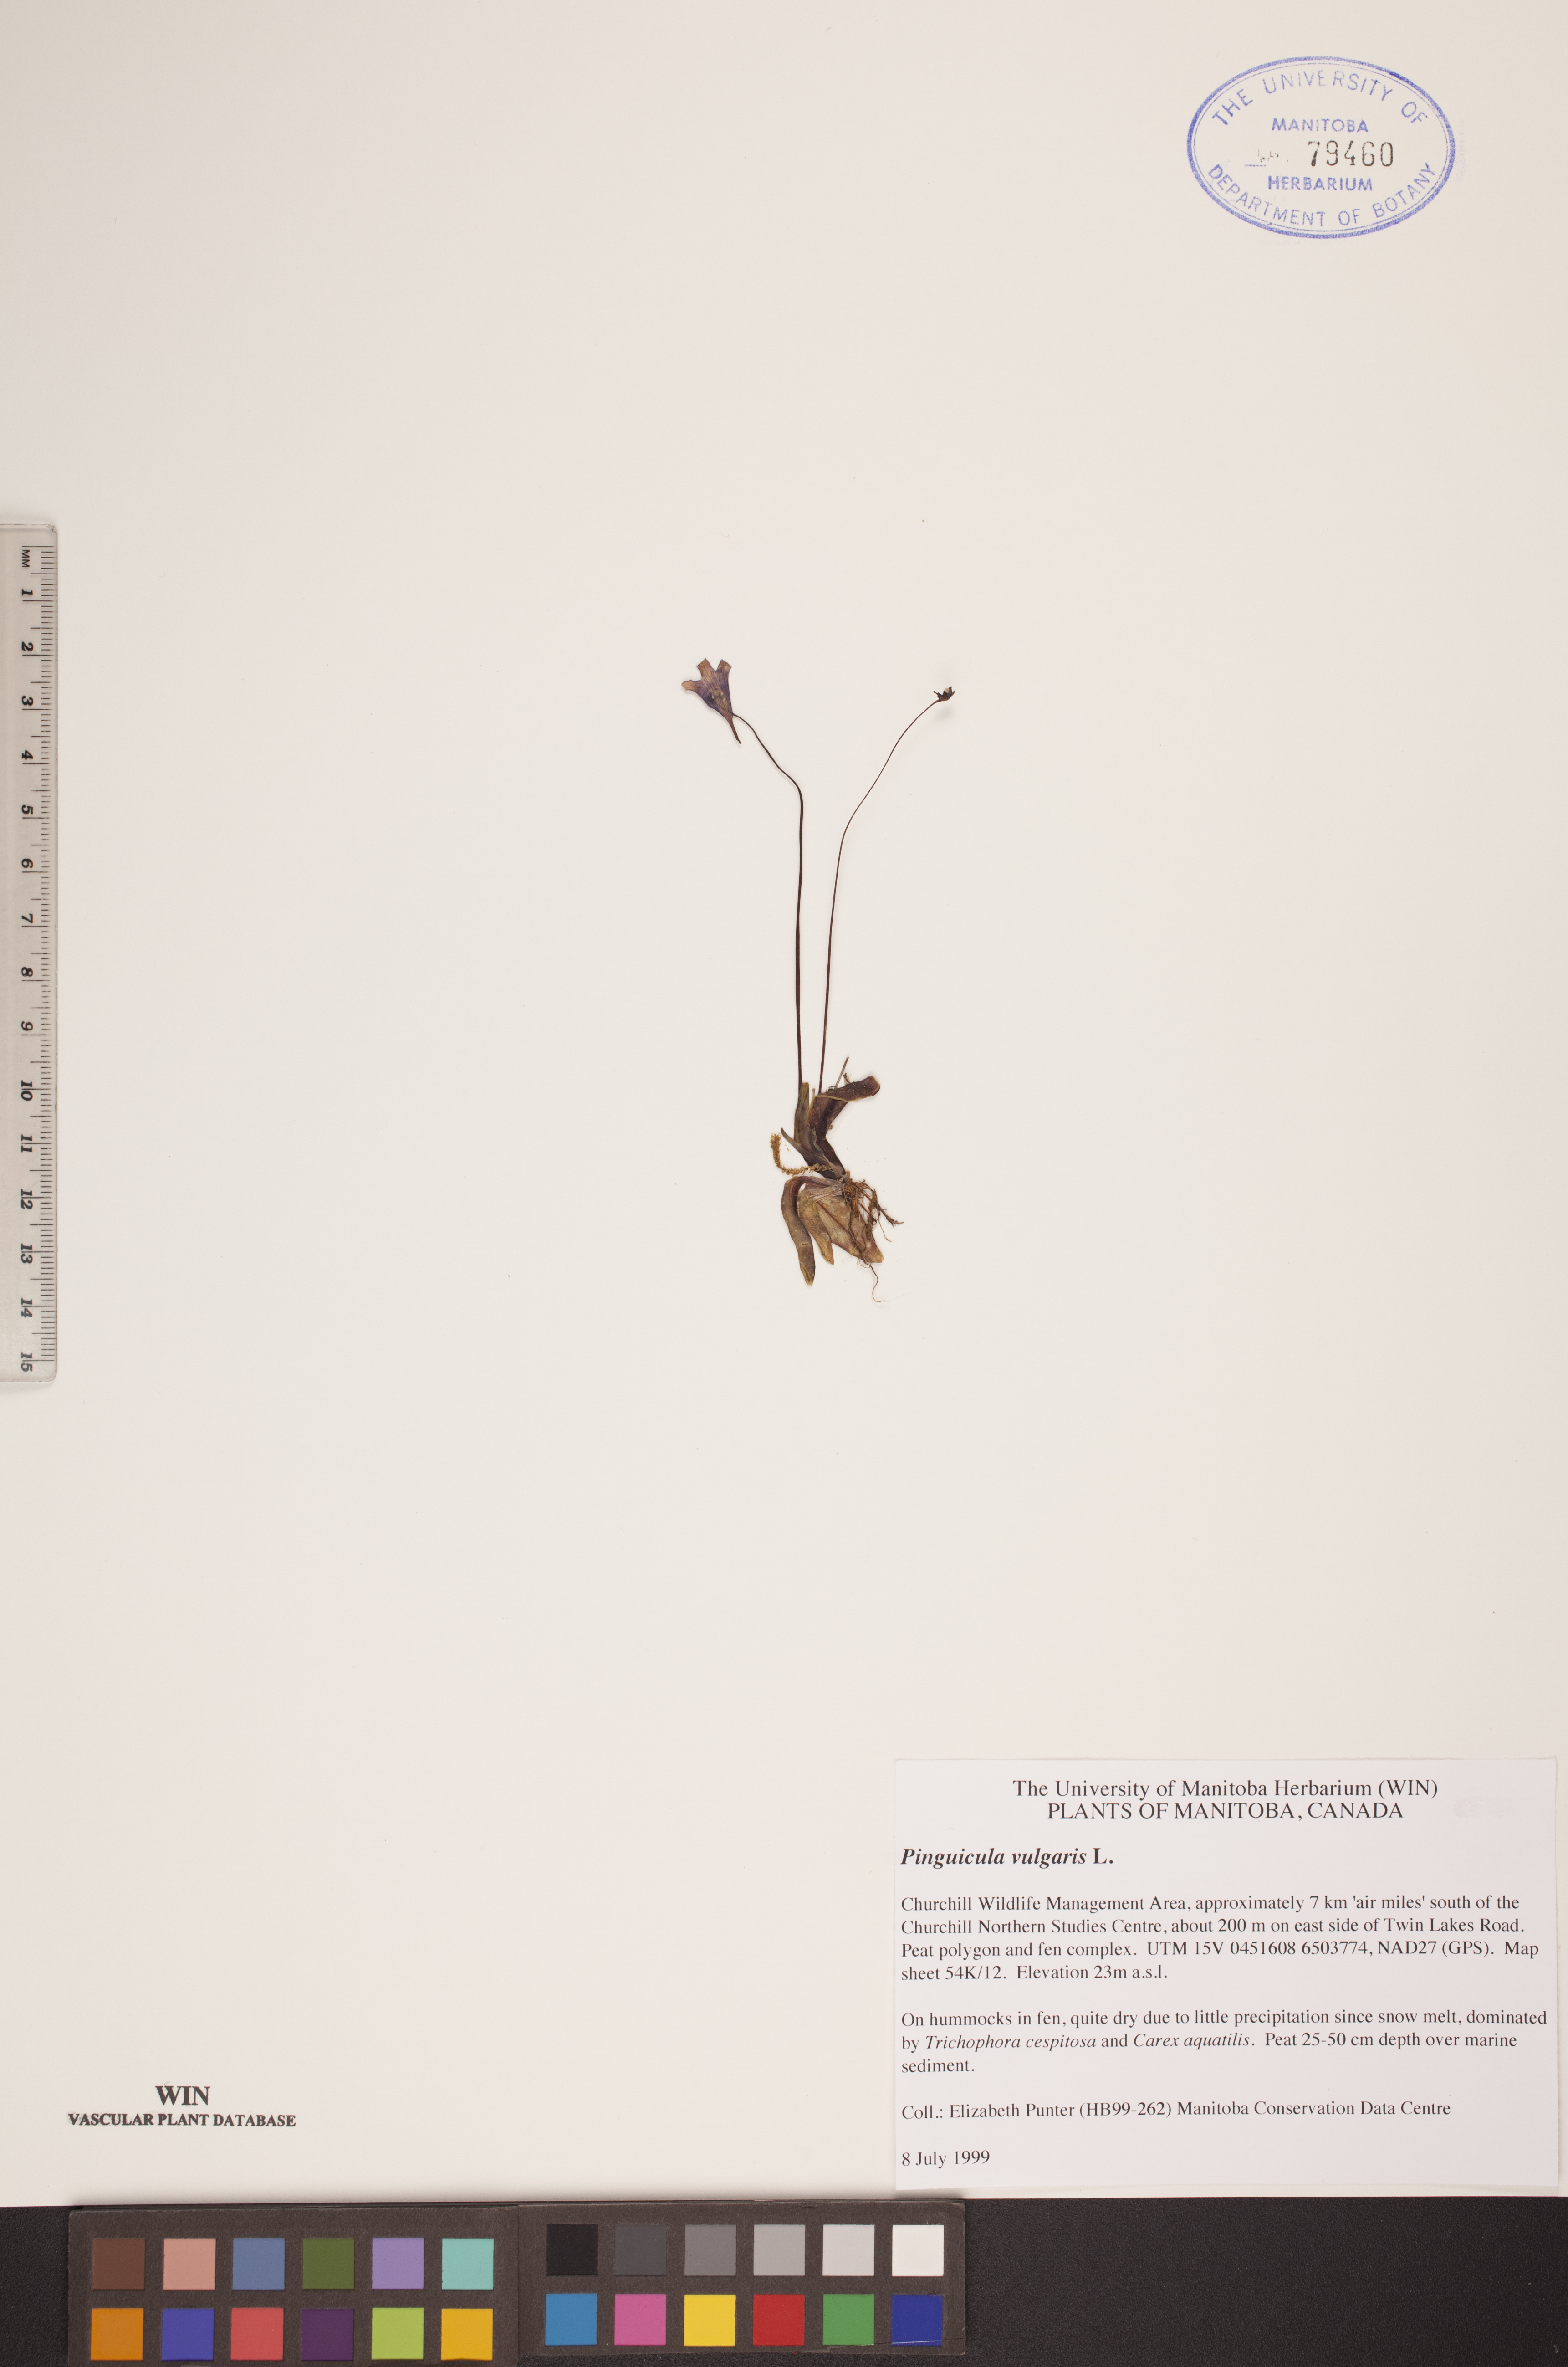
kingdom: Plantae
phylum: Tracheophyta
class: Magnoliopsida
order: Lamiales
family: Lentibulariaceae
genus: Pinguicula
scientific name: Pinguicula vulgaris
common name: Common butterwort
